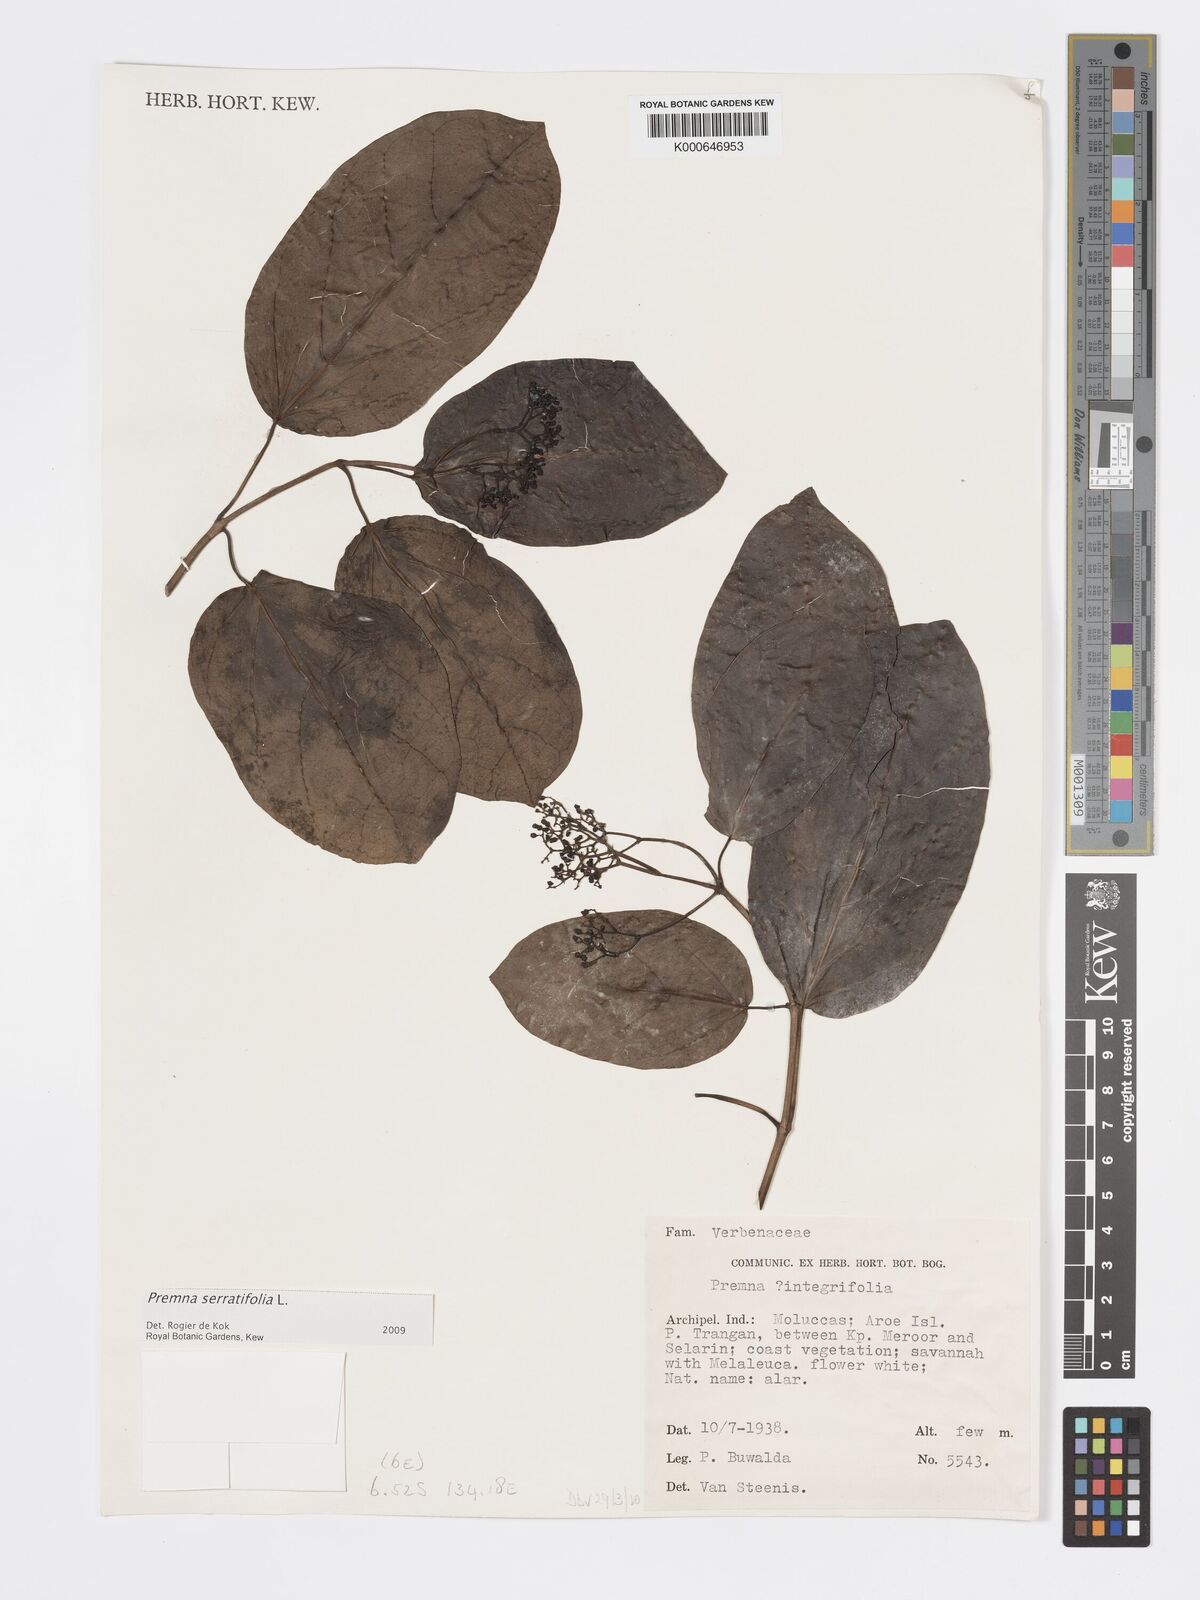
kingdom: Plantae
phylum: Tracheophyta
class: Magnoliopsida
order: Lamiales
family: Lamiaceae
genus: Premna
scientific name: Premna serratifolia
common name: Bastard guelder
